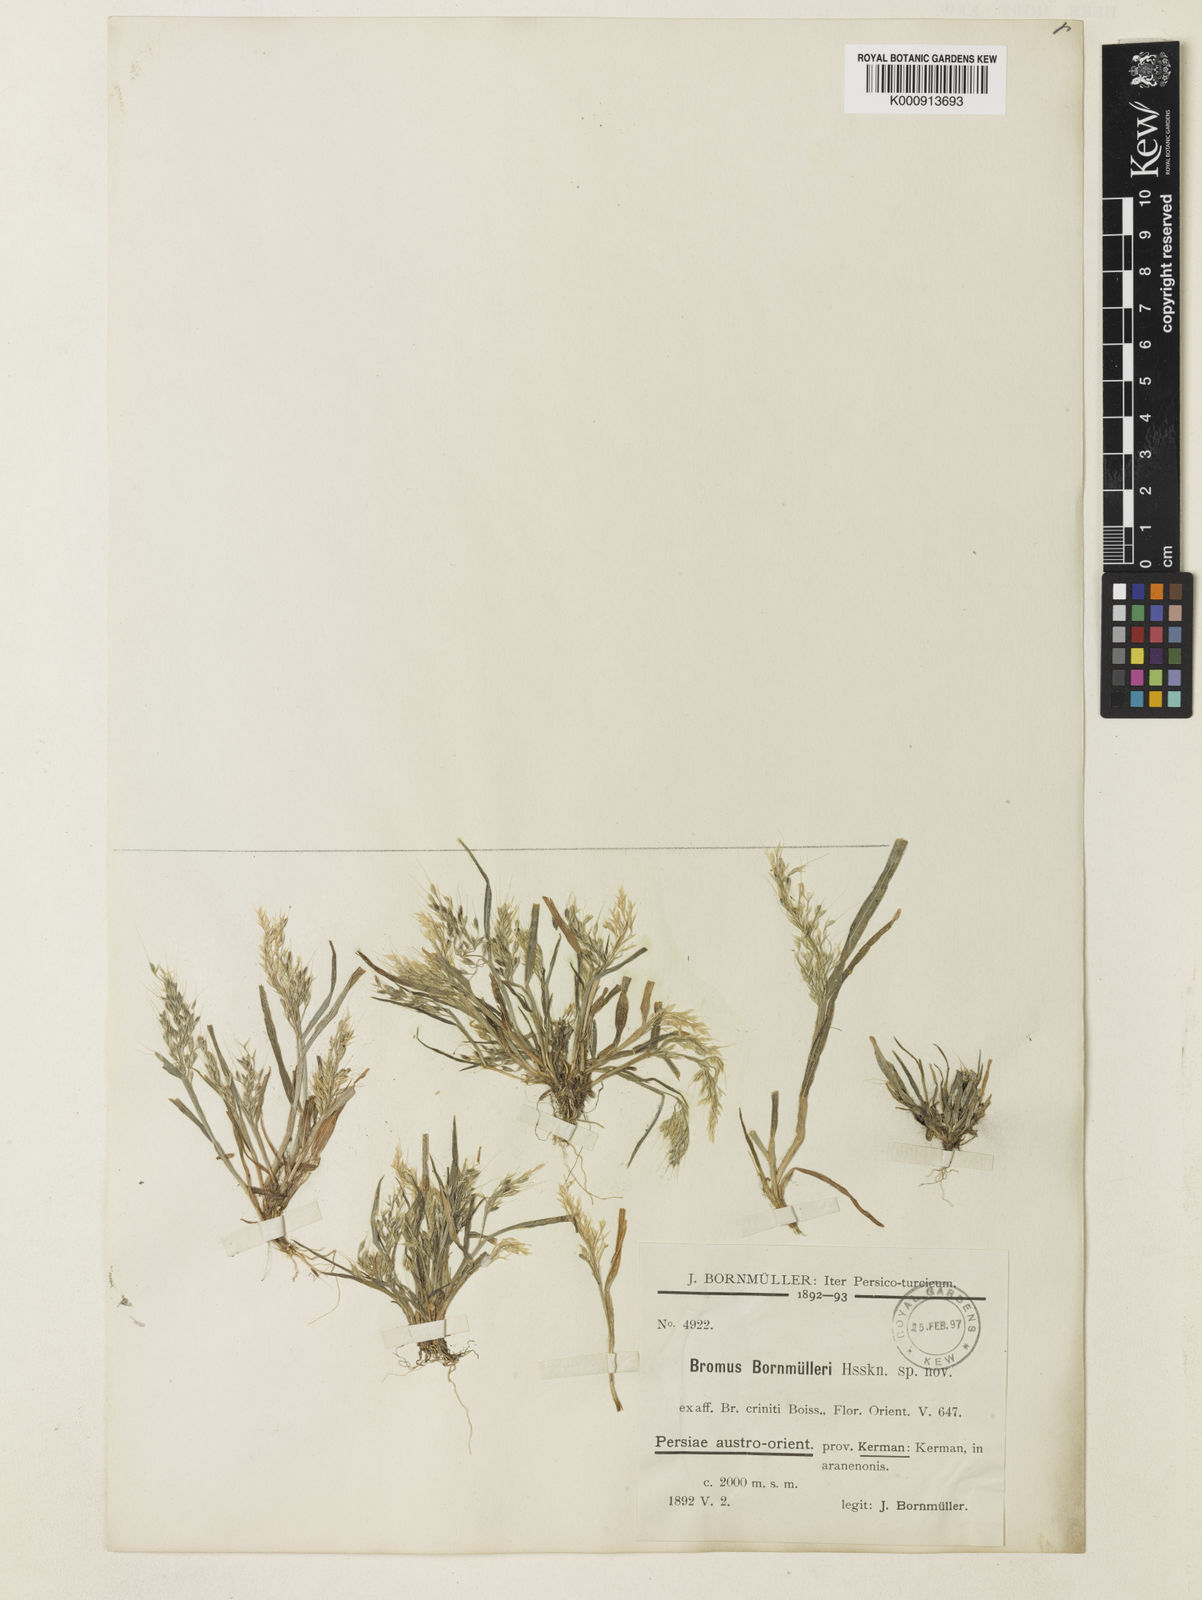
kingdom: Plantae
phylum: Tracheophyta
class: Liliopsida
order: Poales
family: Poaceae
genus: Bromus
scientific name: Bromus gracillimus
